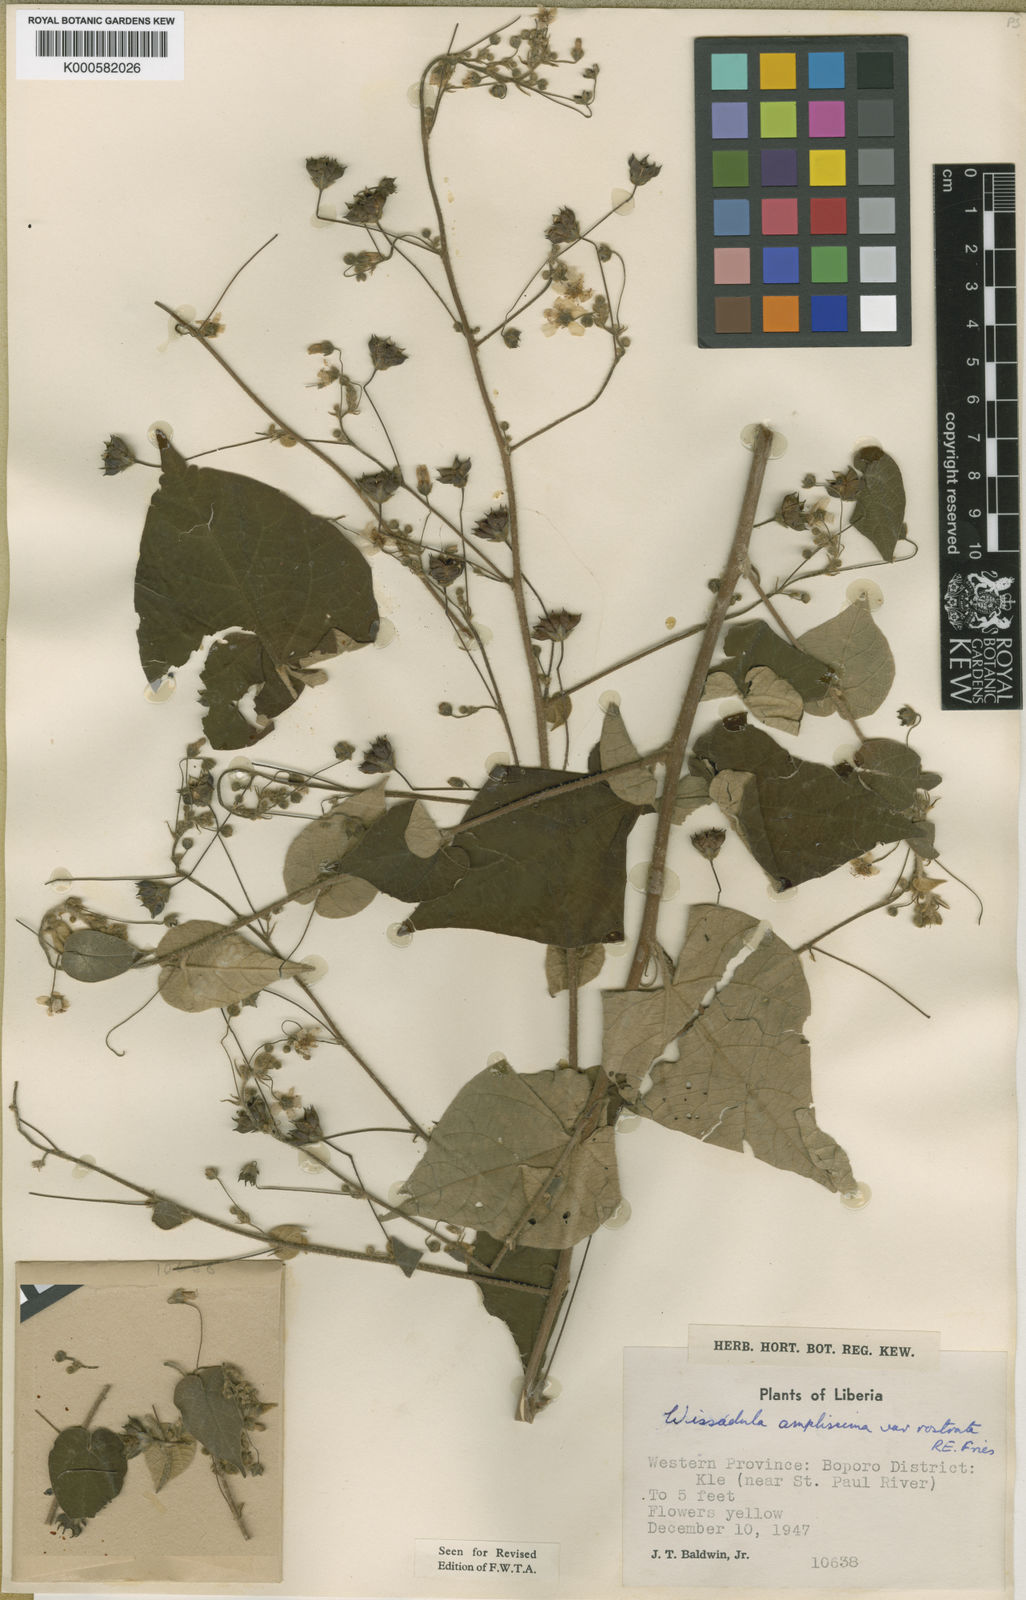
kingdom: Plantae
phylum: Tracheophyta
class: Magnoliopsida
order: Malvales
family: Malvaceae
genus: Wissadula
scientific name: Wissadula
